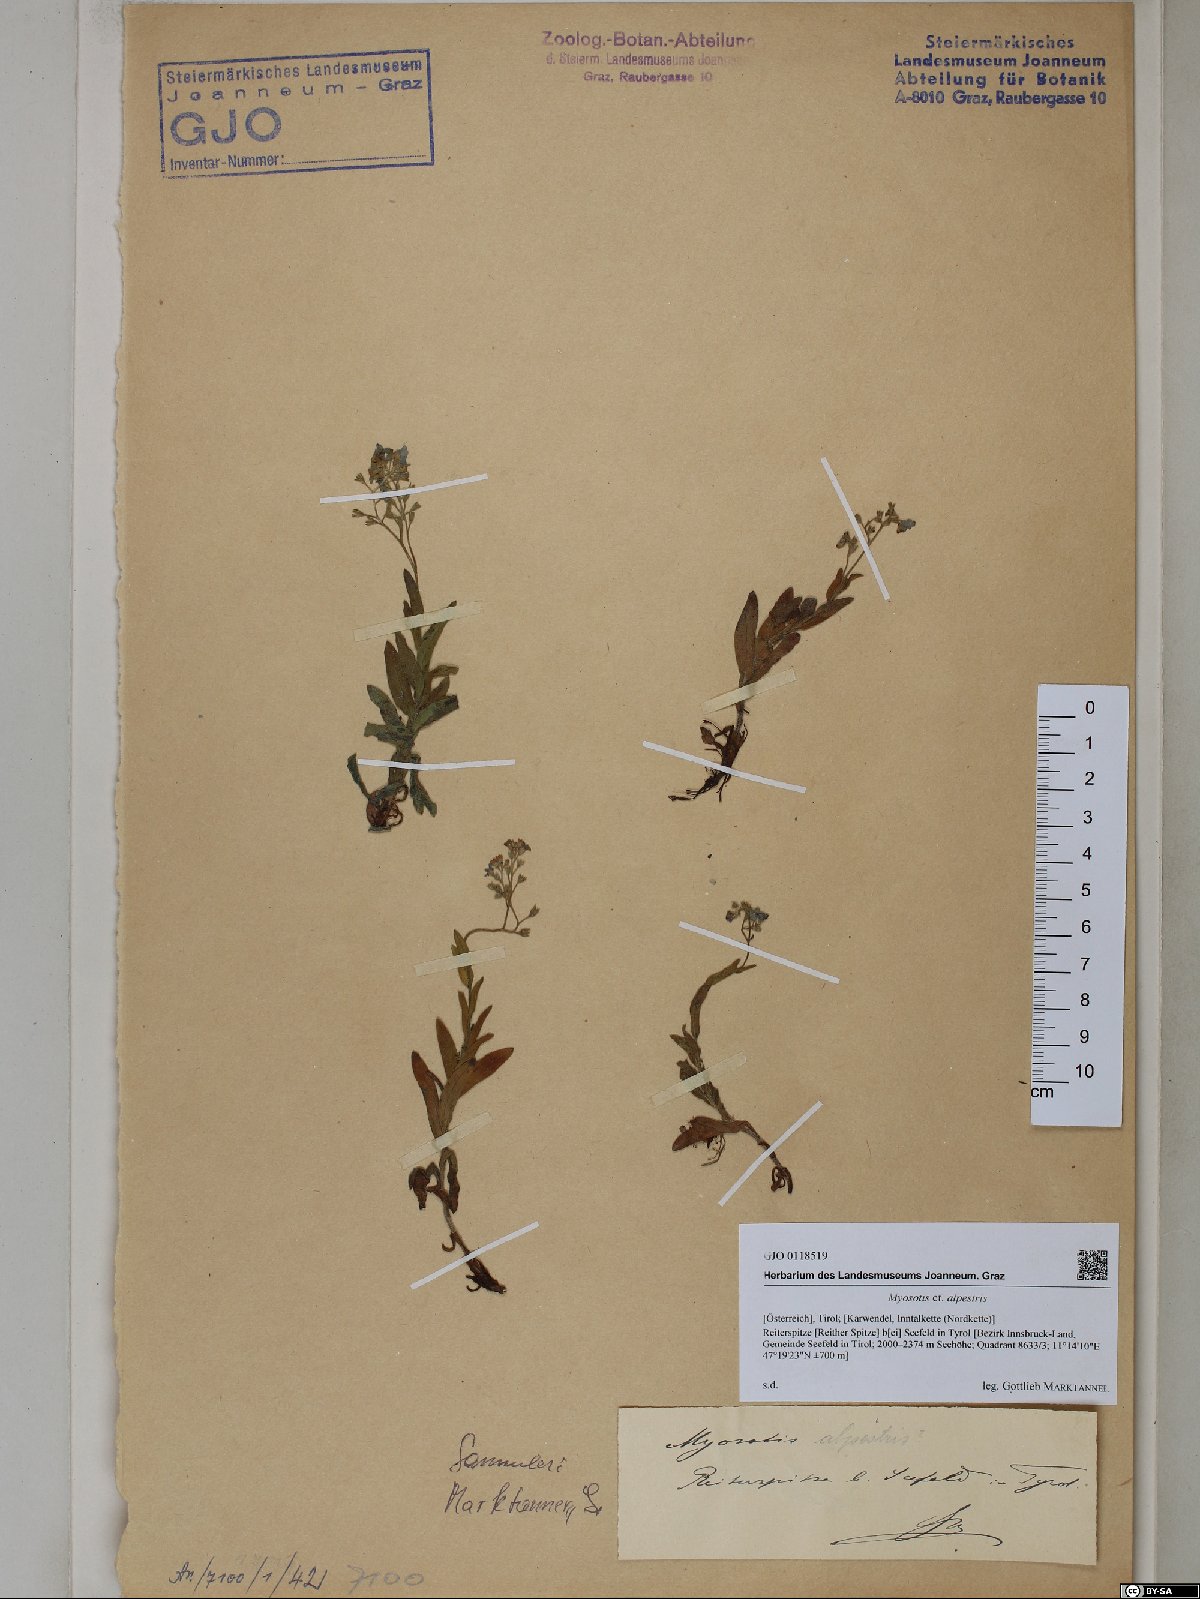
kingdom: Plantae
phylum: Tracheophyta
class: Magnoliopsida
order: Boraginales
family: Boraginaceae
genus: Myosotis
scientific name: Myosotis alpestris
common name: Alpine forget-me-not
